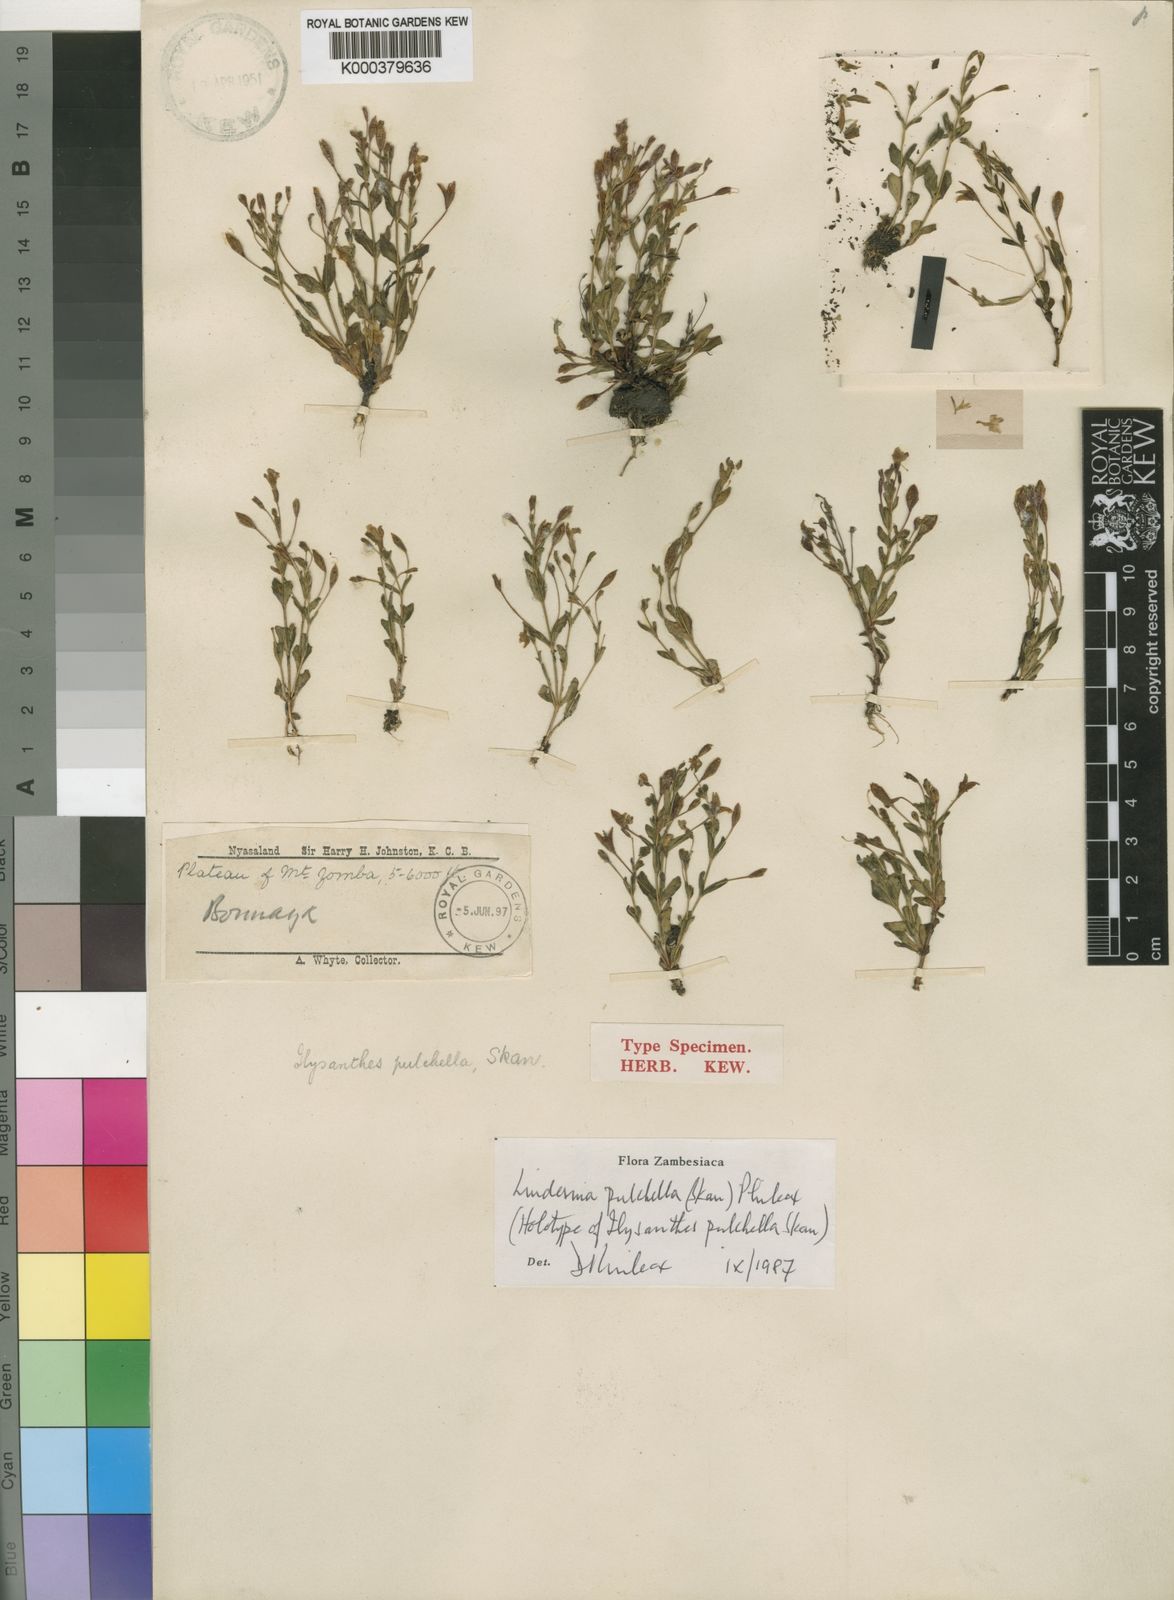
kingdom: Plantae
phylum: Tracheophyta
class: Magnoliopsida
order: Lamiales
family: Linderniaceae
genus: Linderniella
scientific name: Linderniella pulchella
